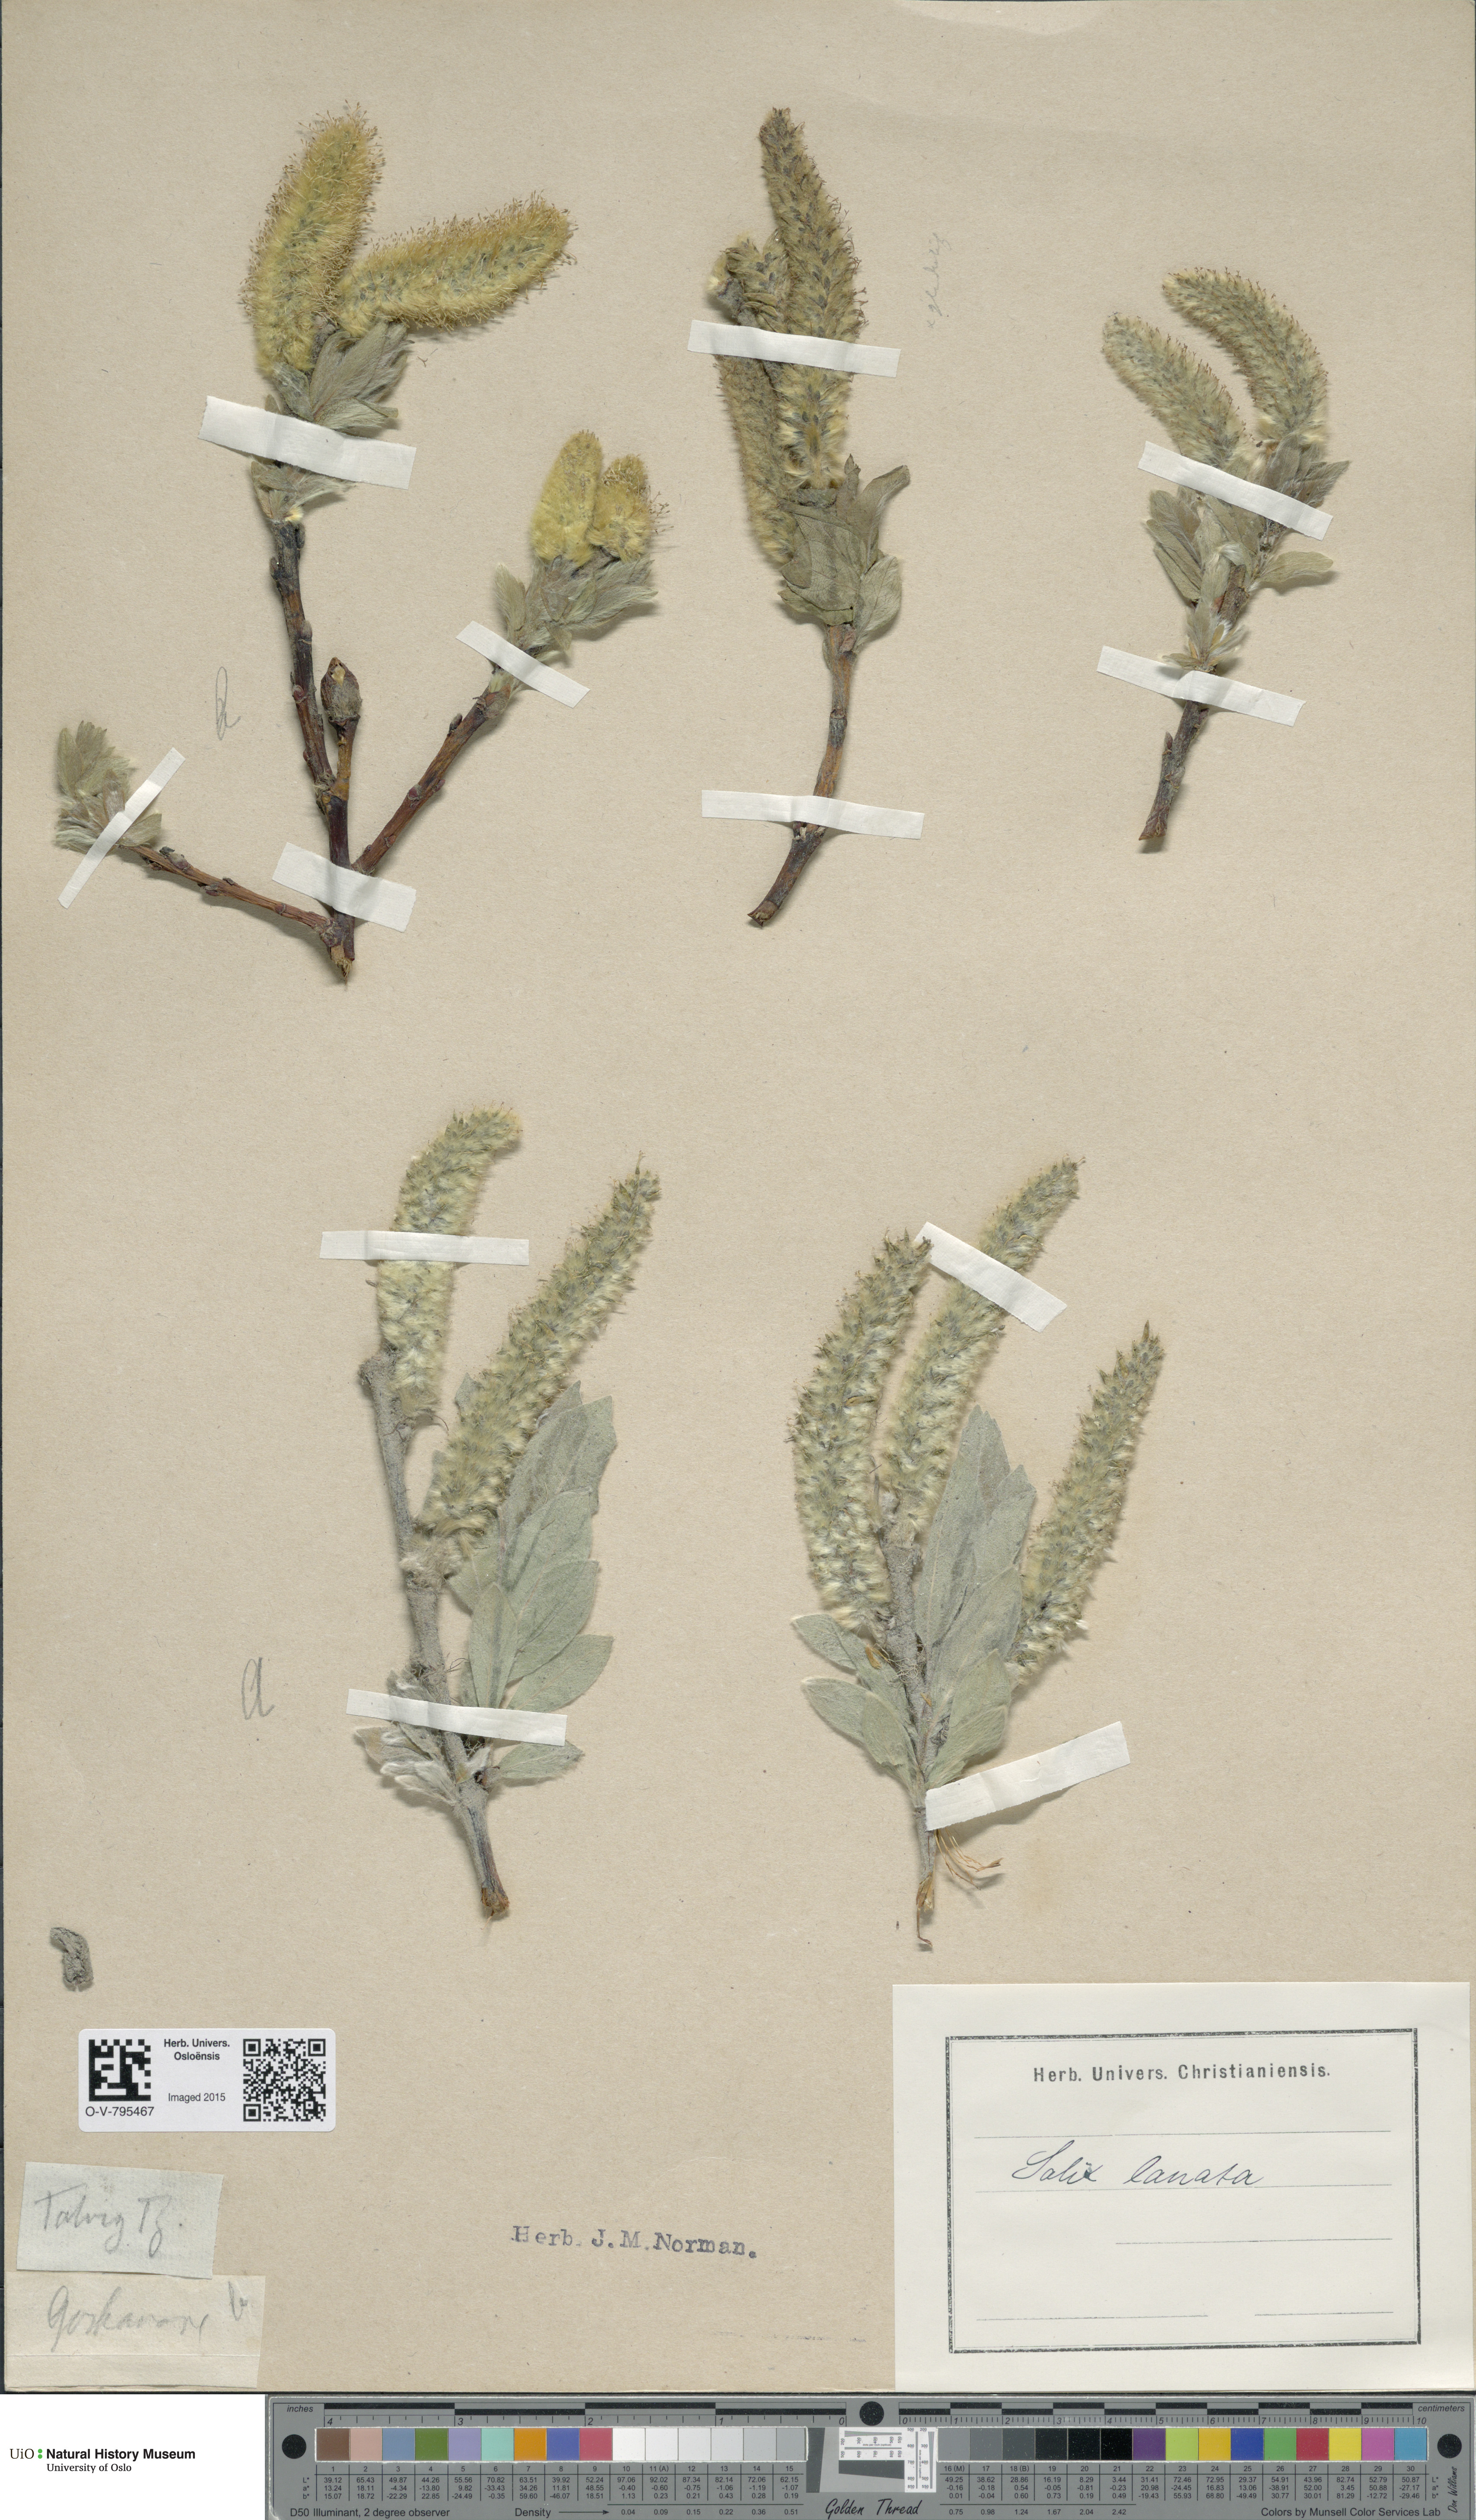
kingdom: Plantae
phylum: Tracheophyta
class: Magnoliopsida
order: Malpighiales
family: Salicaceae
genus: Salix
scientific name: Salix lanata
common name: Woolly willow
